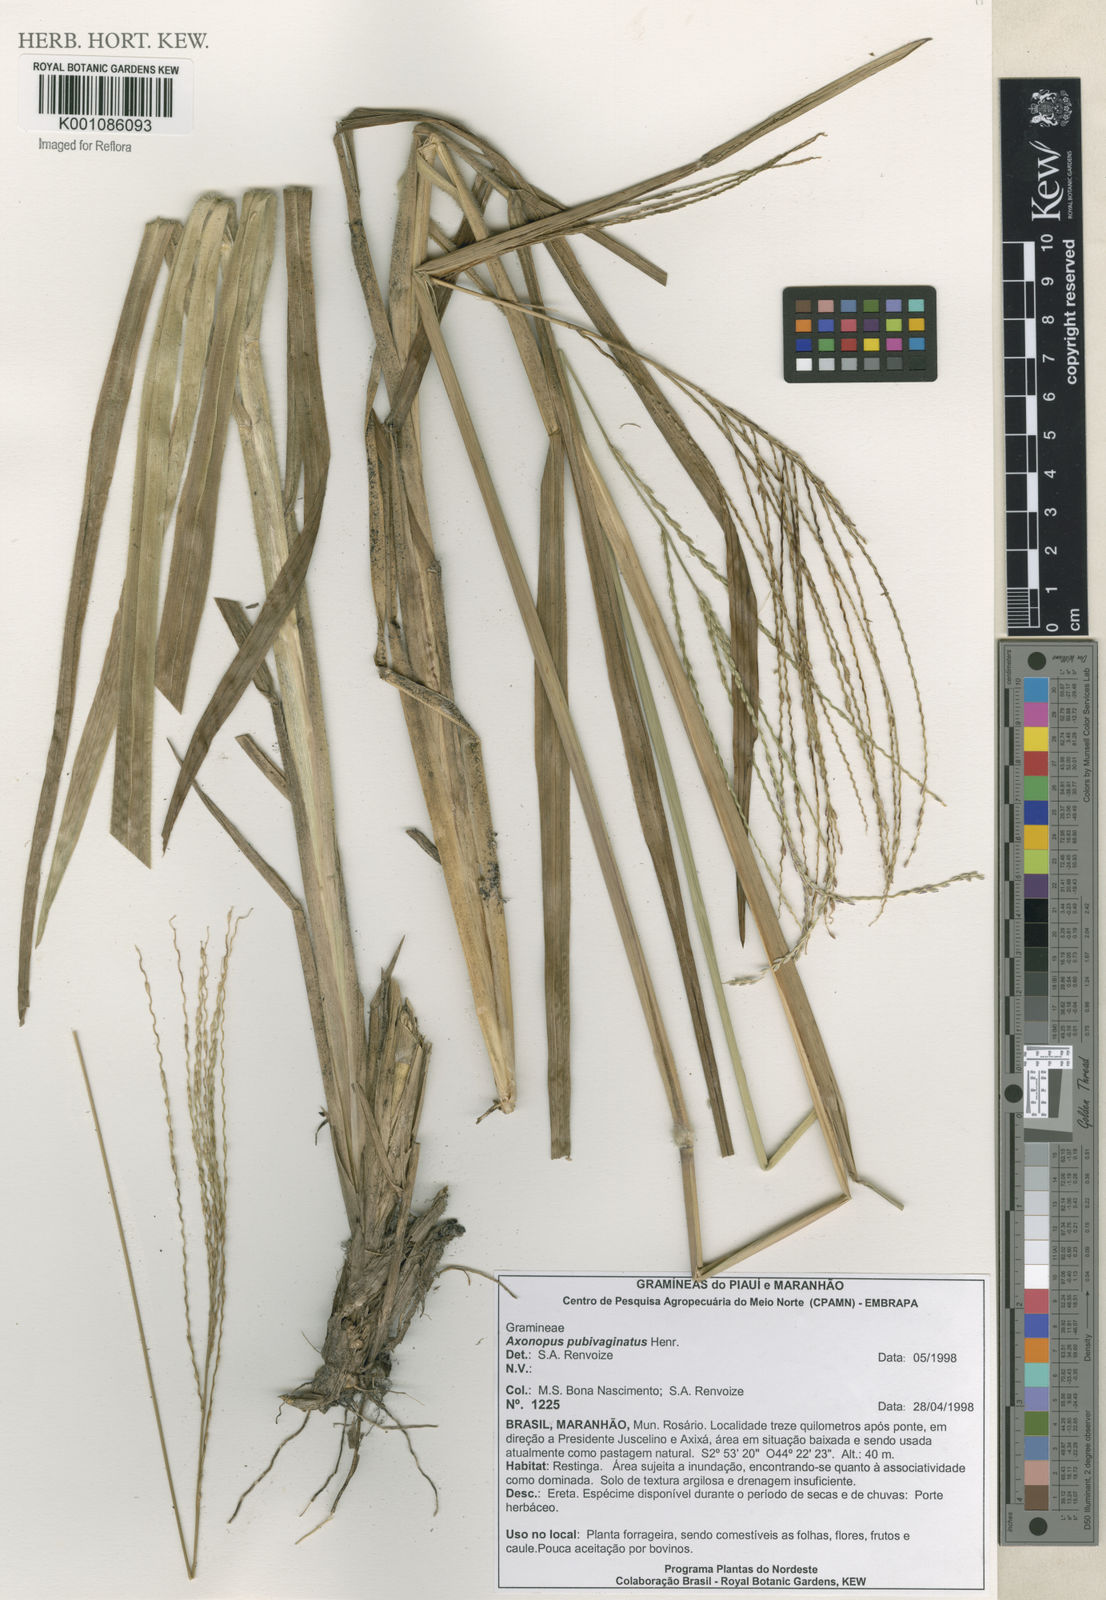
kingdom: Plantae
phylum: Tracheophyta
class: Liliopsida
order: Poales
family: Poaceae
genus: Axonopus
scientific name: Axonopus pubivaginatus
